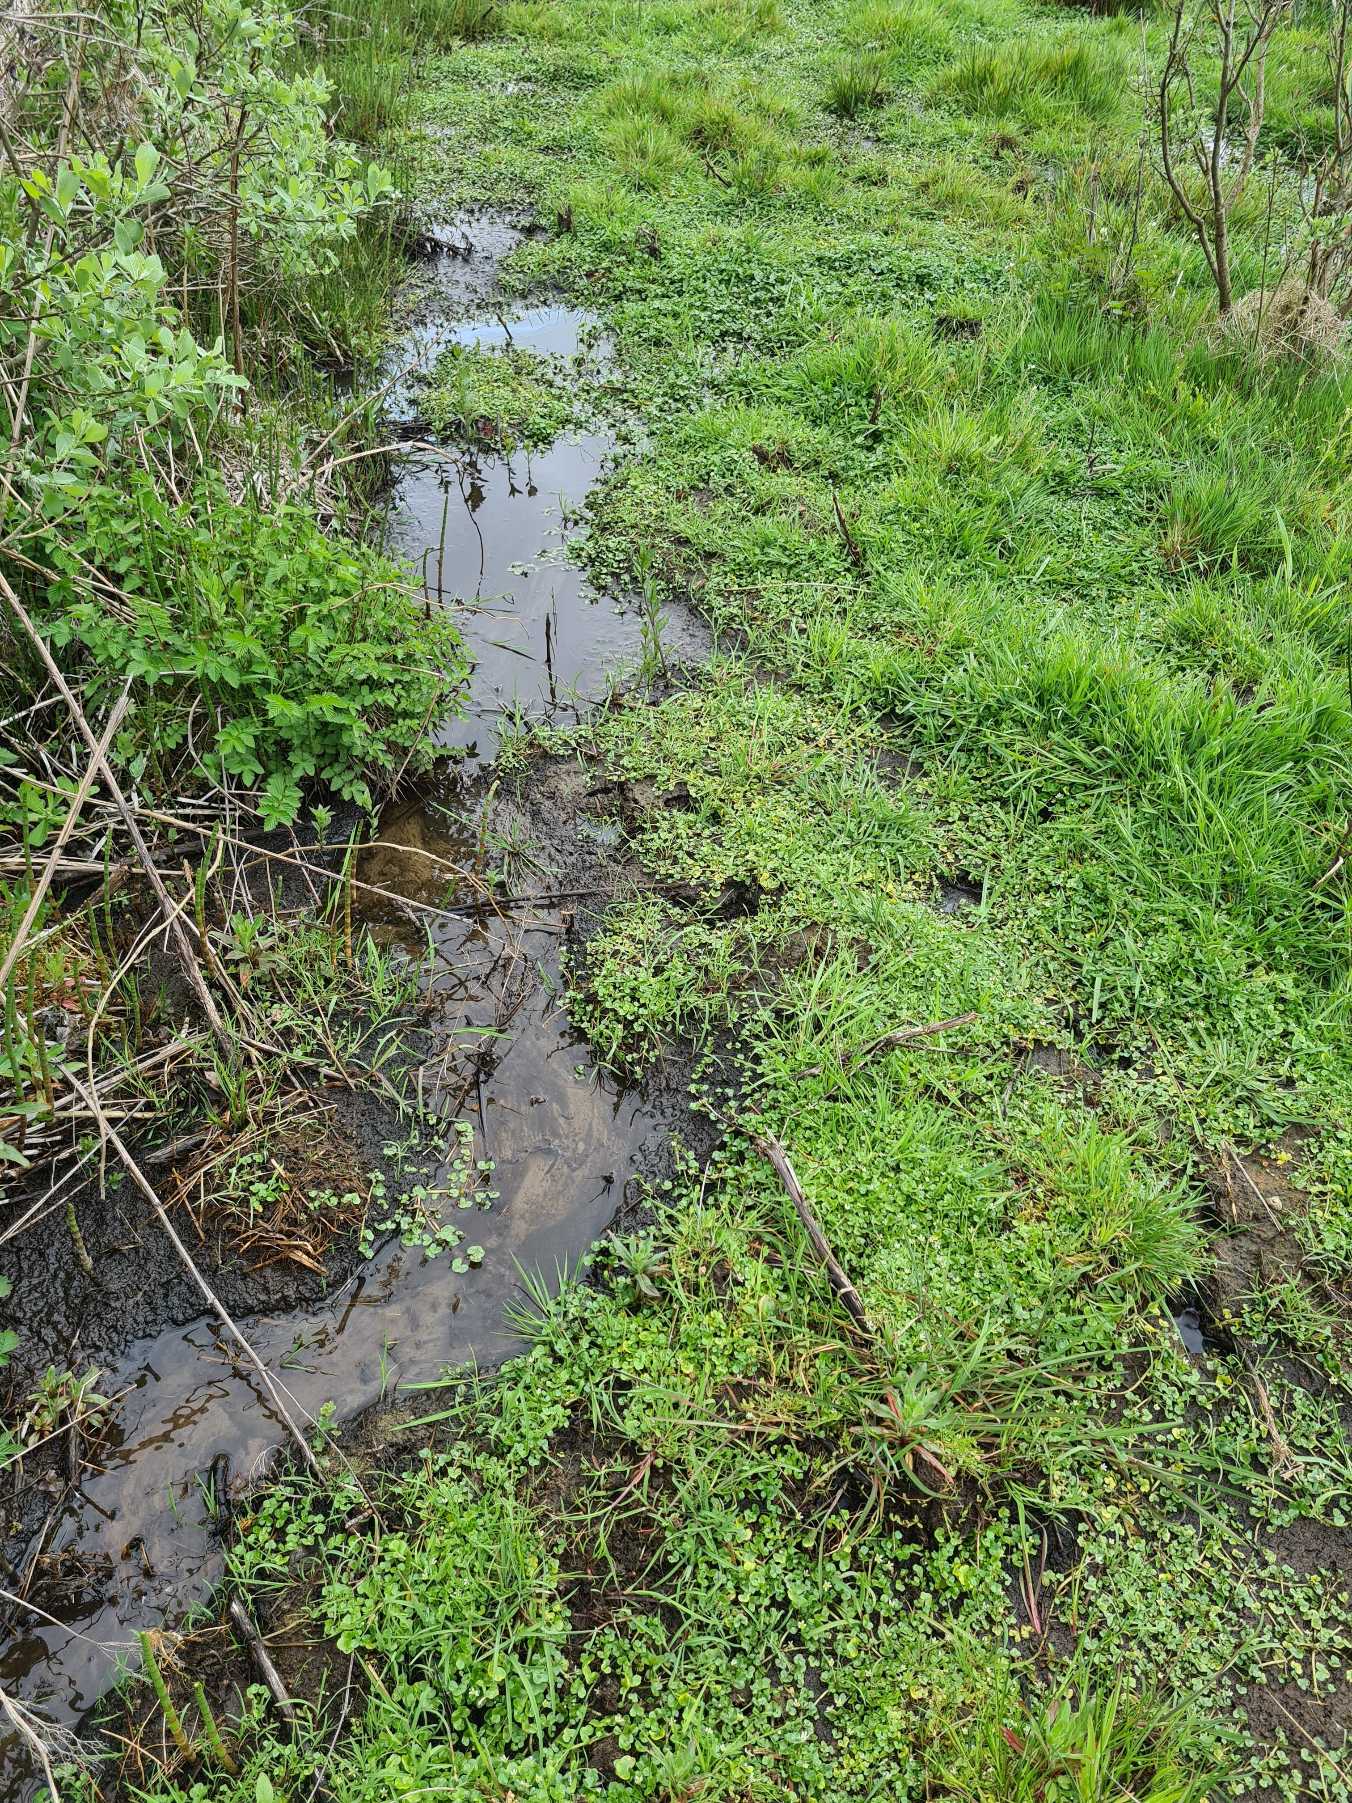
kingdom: Plantae
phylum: Tracheophyta
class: Magnoliopsida
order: Ranunculales
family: Ranunculaceae
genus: Ranunculus
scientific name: Ranunculus hederaceus
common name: Vedbend-vandranunkel
